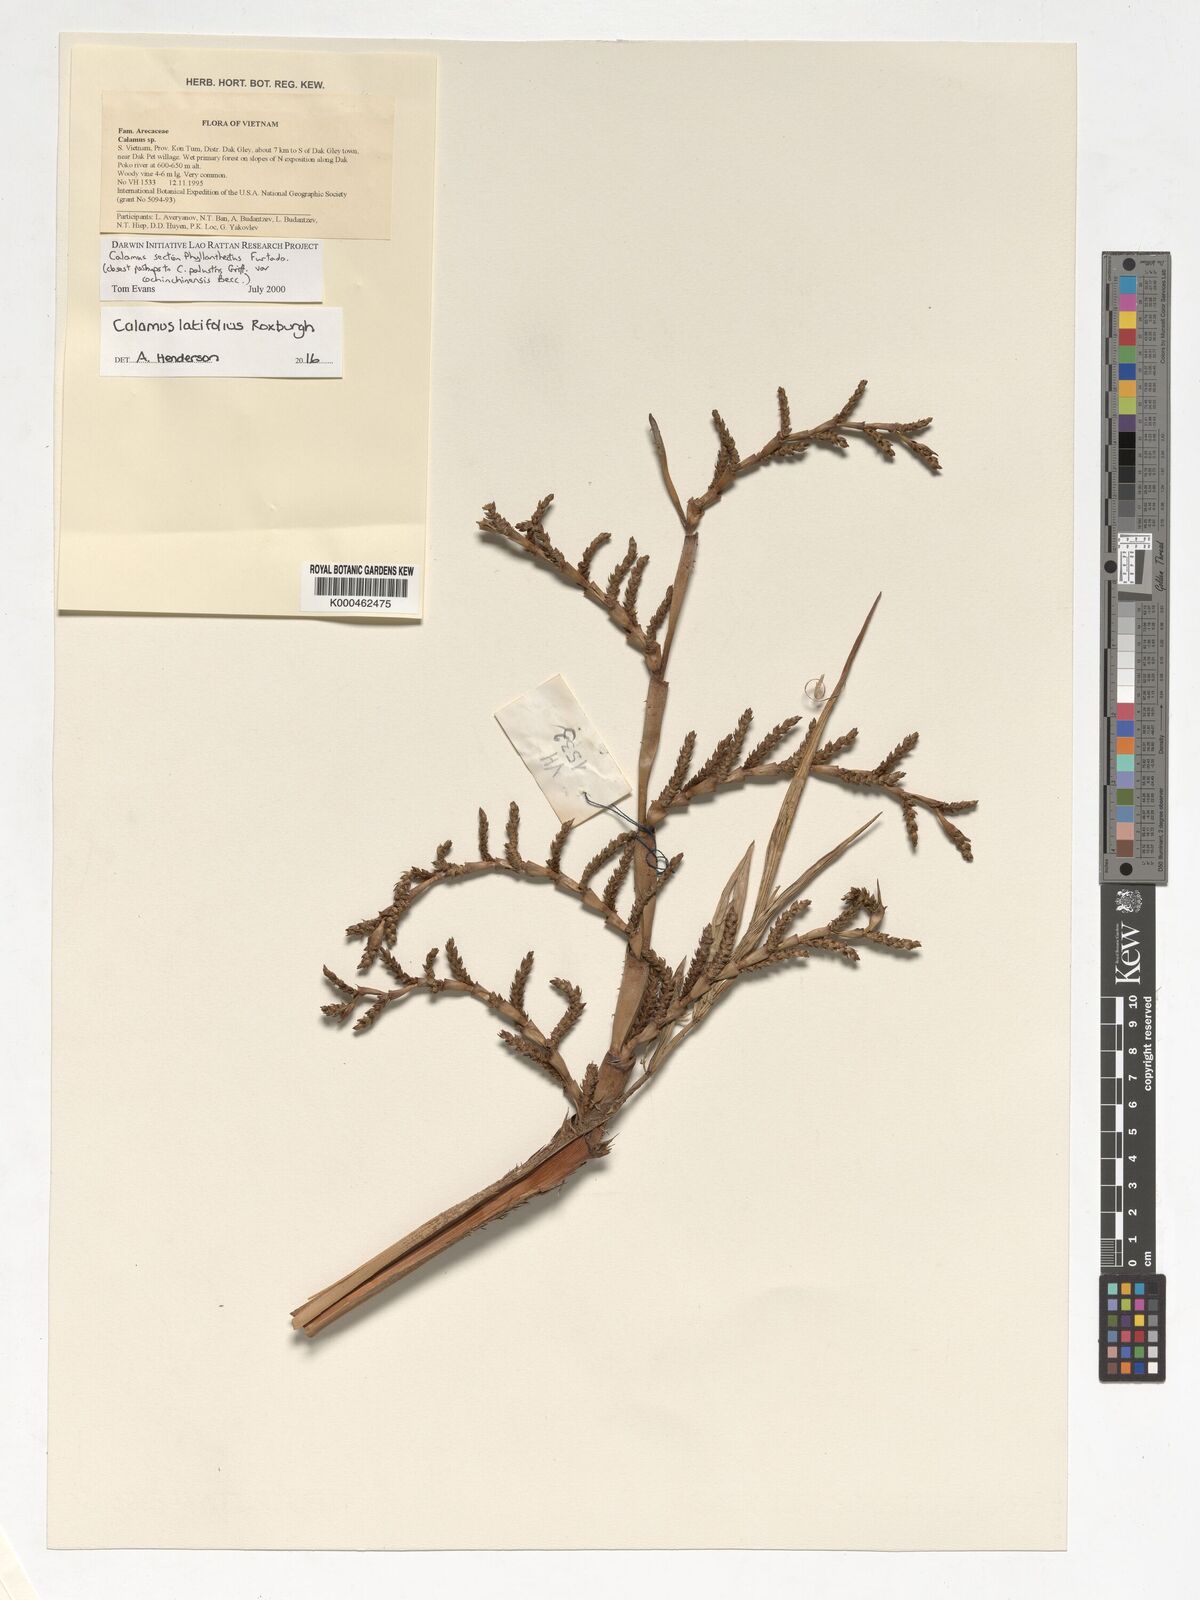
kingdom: Plantae
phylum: Tracheophyta
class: Liliopsida
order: Arecales
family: Arecaceae
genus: Calamus
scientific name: Calamus latifolius
